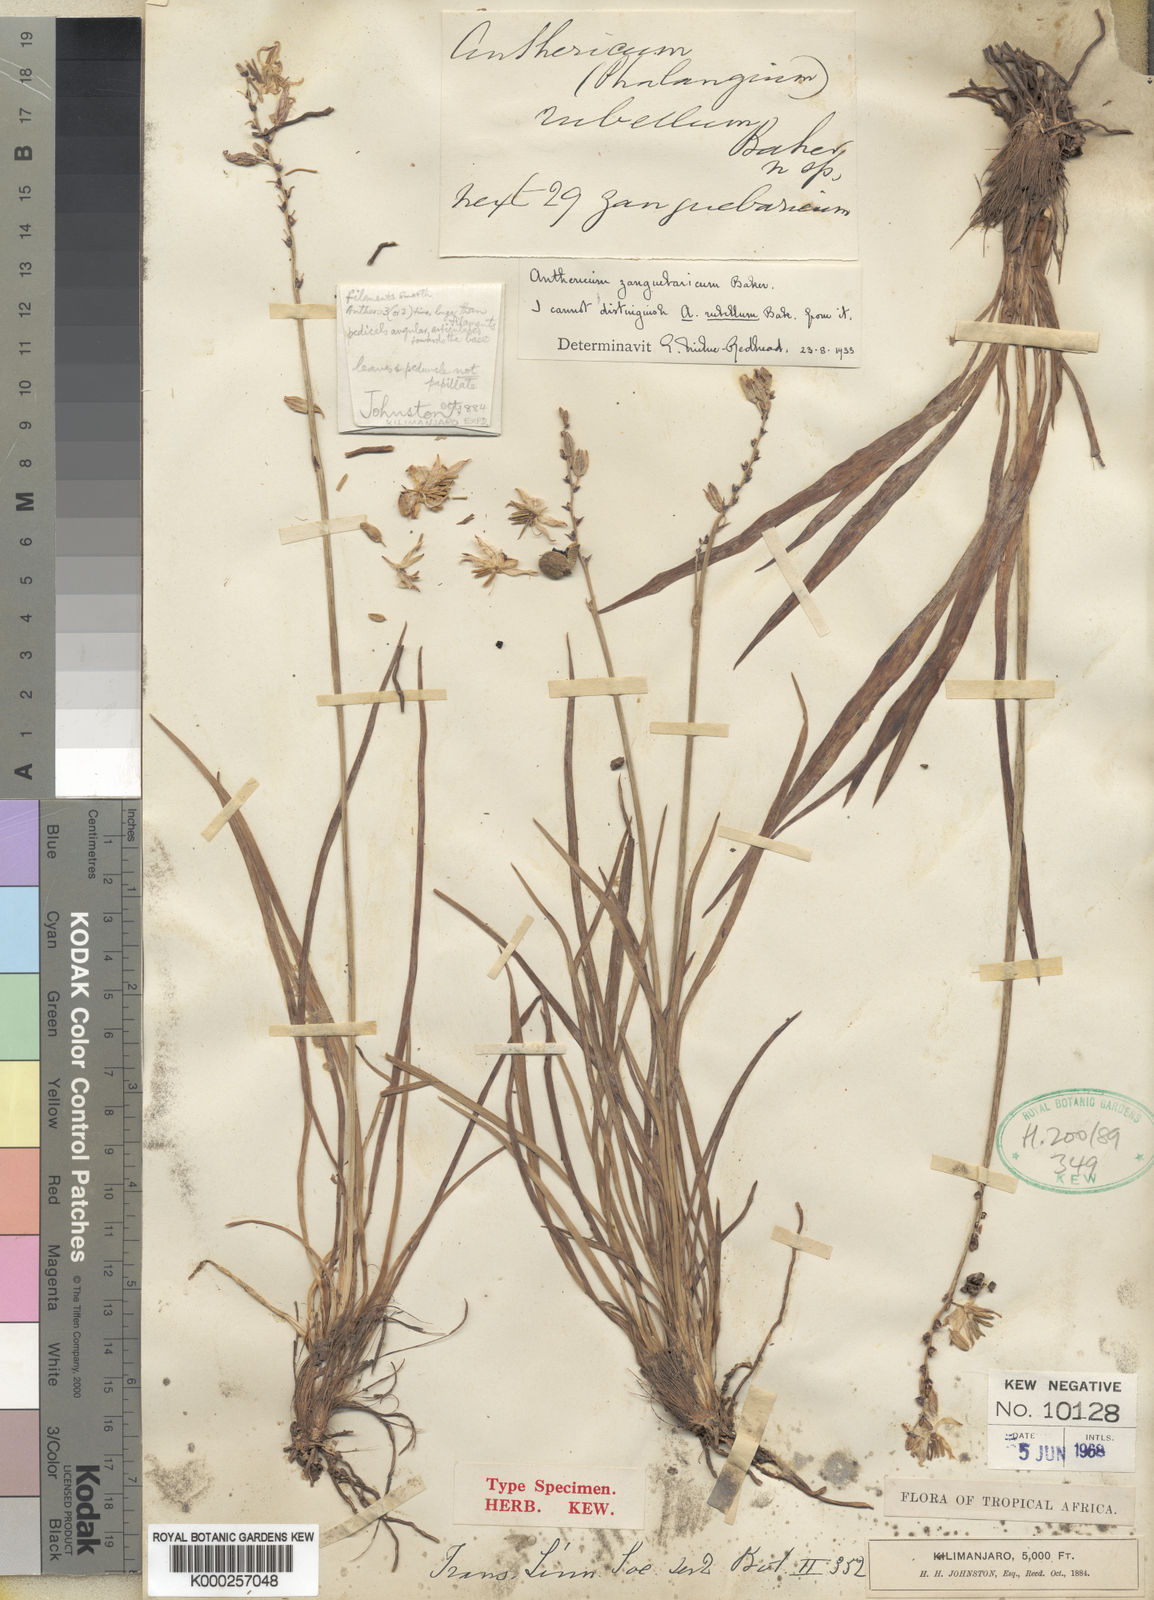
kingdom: Plantae
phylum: Tracheophyta
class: Liliopsida
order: Asparagales
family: Asparagaceae
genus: Chlorophytum
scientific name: Chlorophytum cameronii
